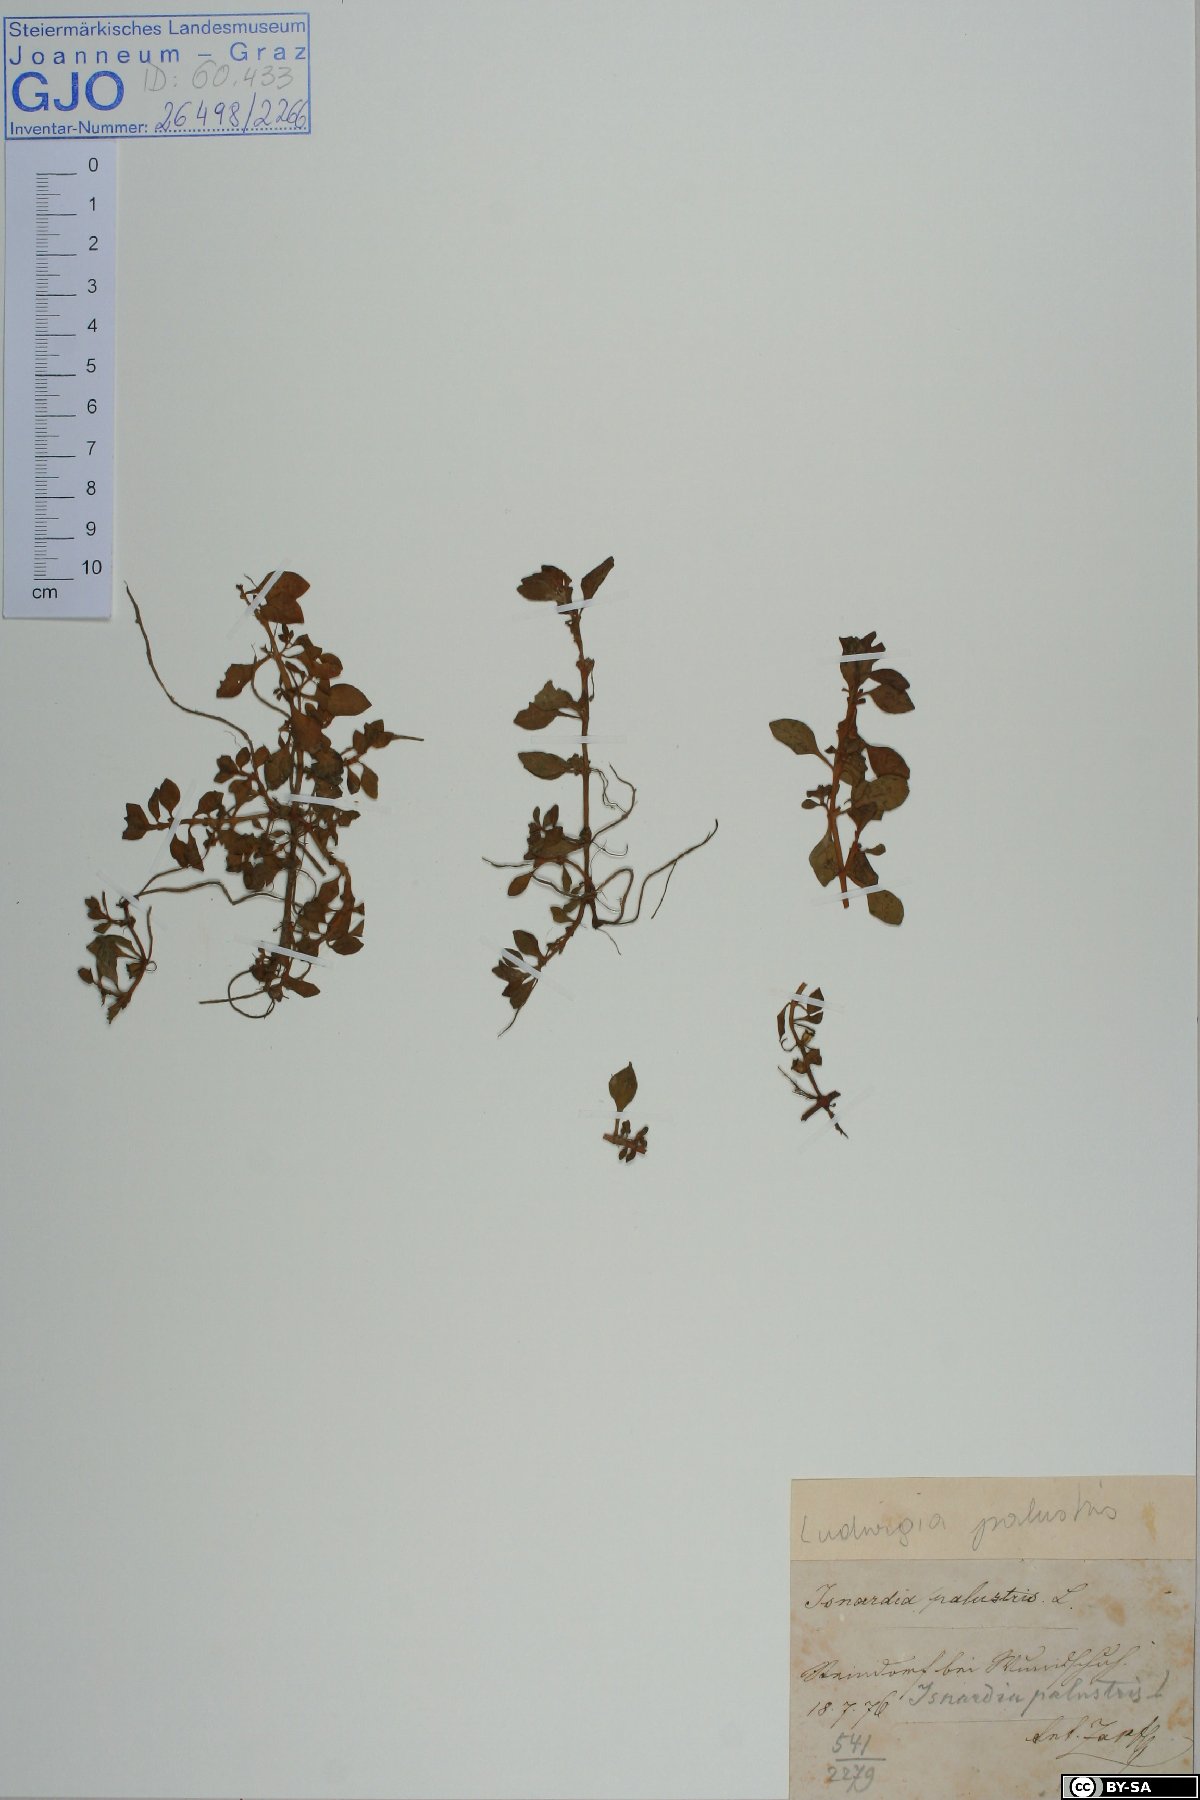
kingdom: Plantae
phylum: Tracheophyta
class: Magnoliopsida
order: Myrtales
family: Onagraceae
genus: Ludwigia
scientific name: Ludwigia palustris
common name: Hampshire-purslane
